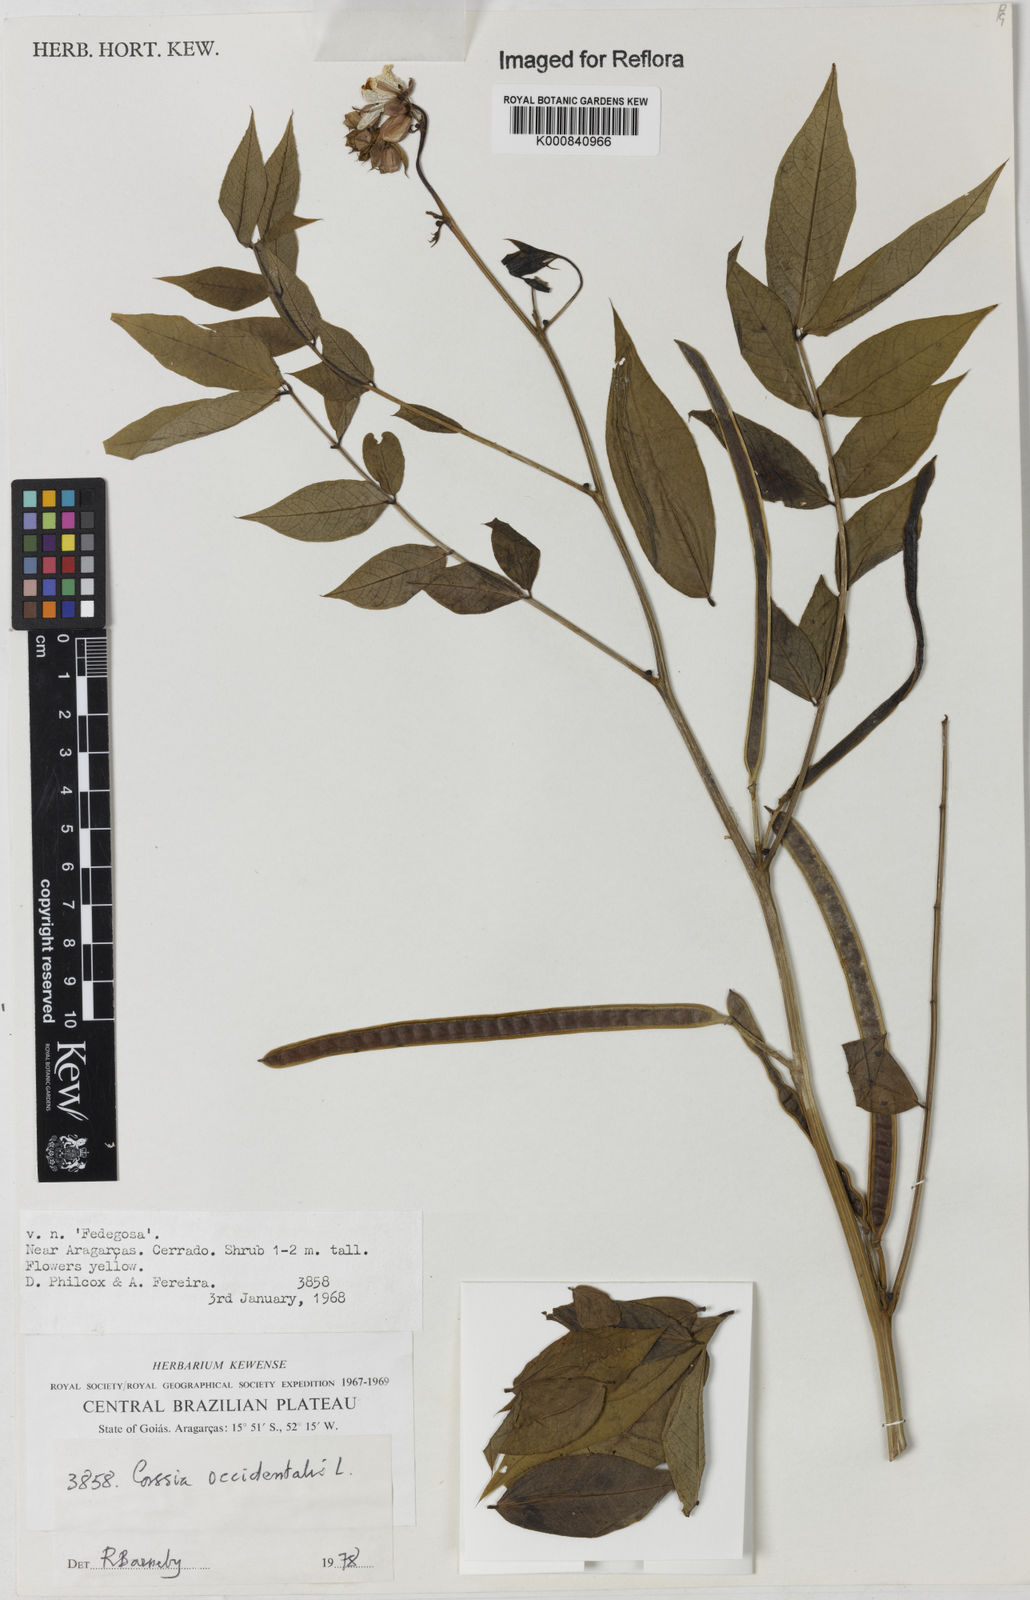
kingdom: Plantae
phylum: Tracheophyta
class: Magnoliopsida
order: Fabales
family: Fabaceae
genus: Senna
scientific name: Senna occidentalis
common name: Septicweed
